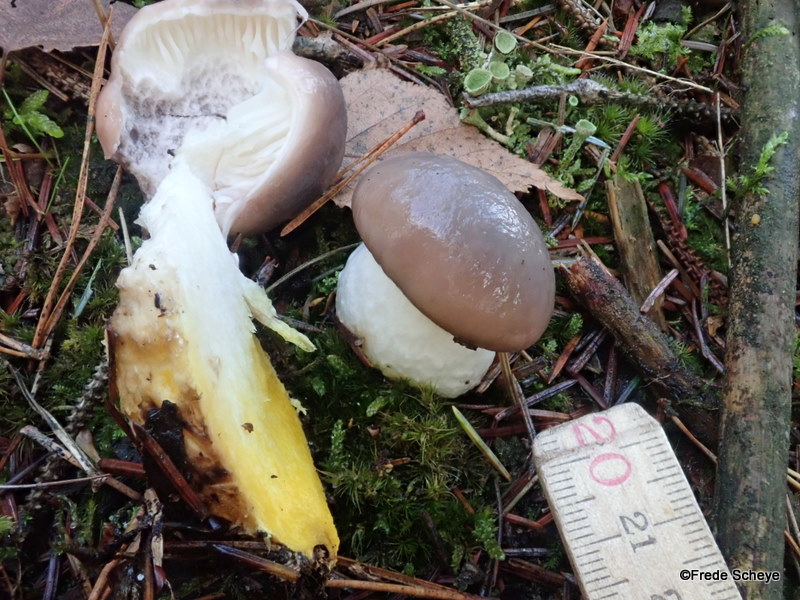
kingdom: Fungi
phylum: Basidiomycota
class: Agaricomycetes
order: Boletales
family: Gomphidiaceae
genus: Gomphidius
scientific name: Gomphidius glutinosus
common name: grå slimslør
